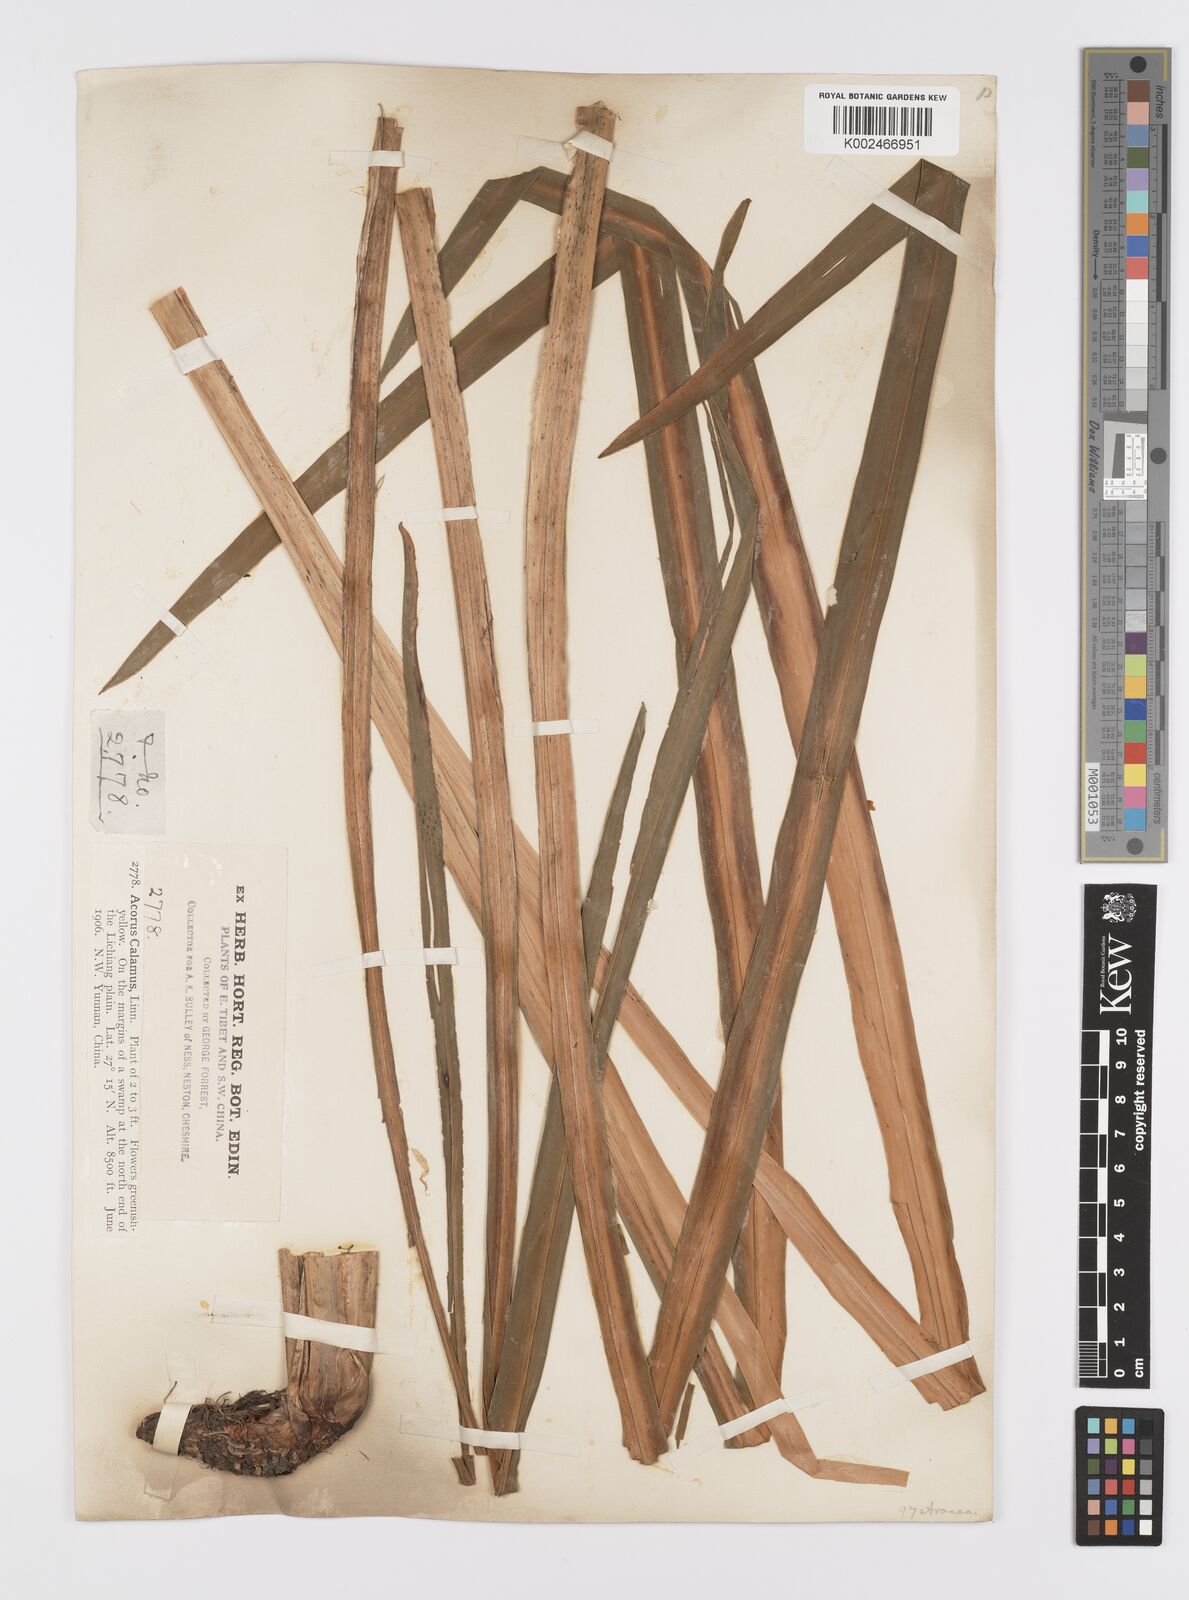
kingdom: Plantae
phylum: Tracheophyta
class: Liliopsida
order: Acorales
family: Acoraceae
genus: Acorus
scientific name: Acorus calamus
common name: Sweet-flag
